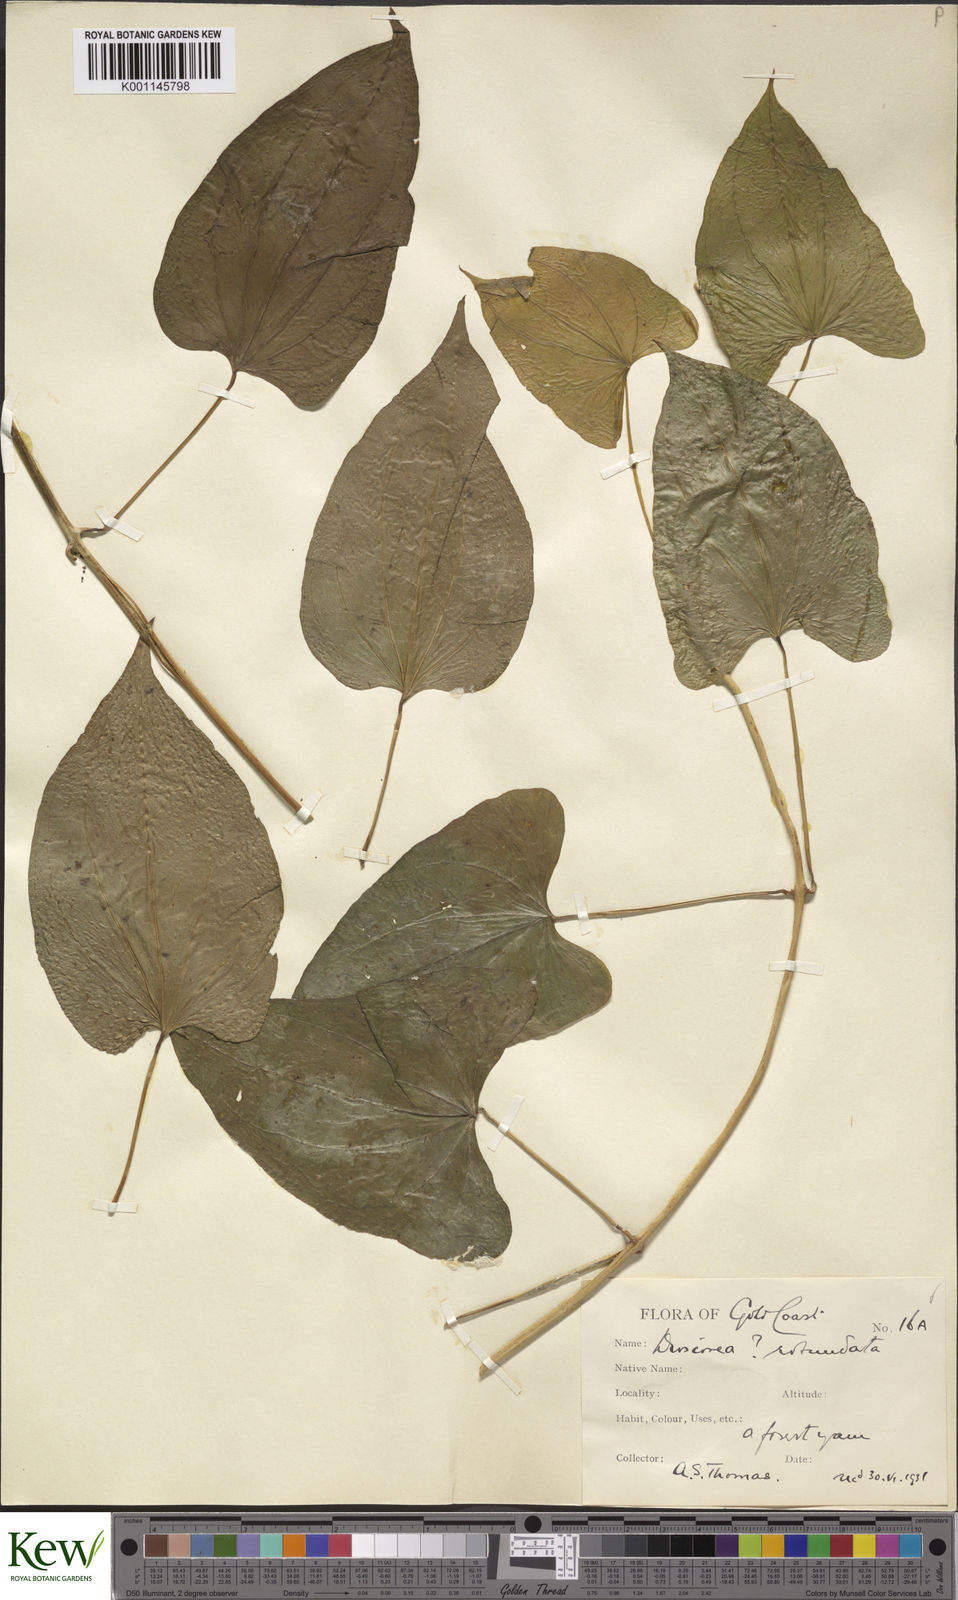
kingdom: Plantae
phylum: Tracheophyta
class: Liliopsida
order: Dioscoreales
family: Dioscoreaceae
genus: Dioscorea
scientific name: Dioscorea cayenensis
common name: Attoto yam
